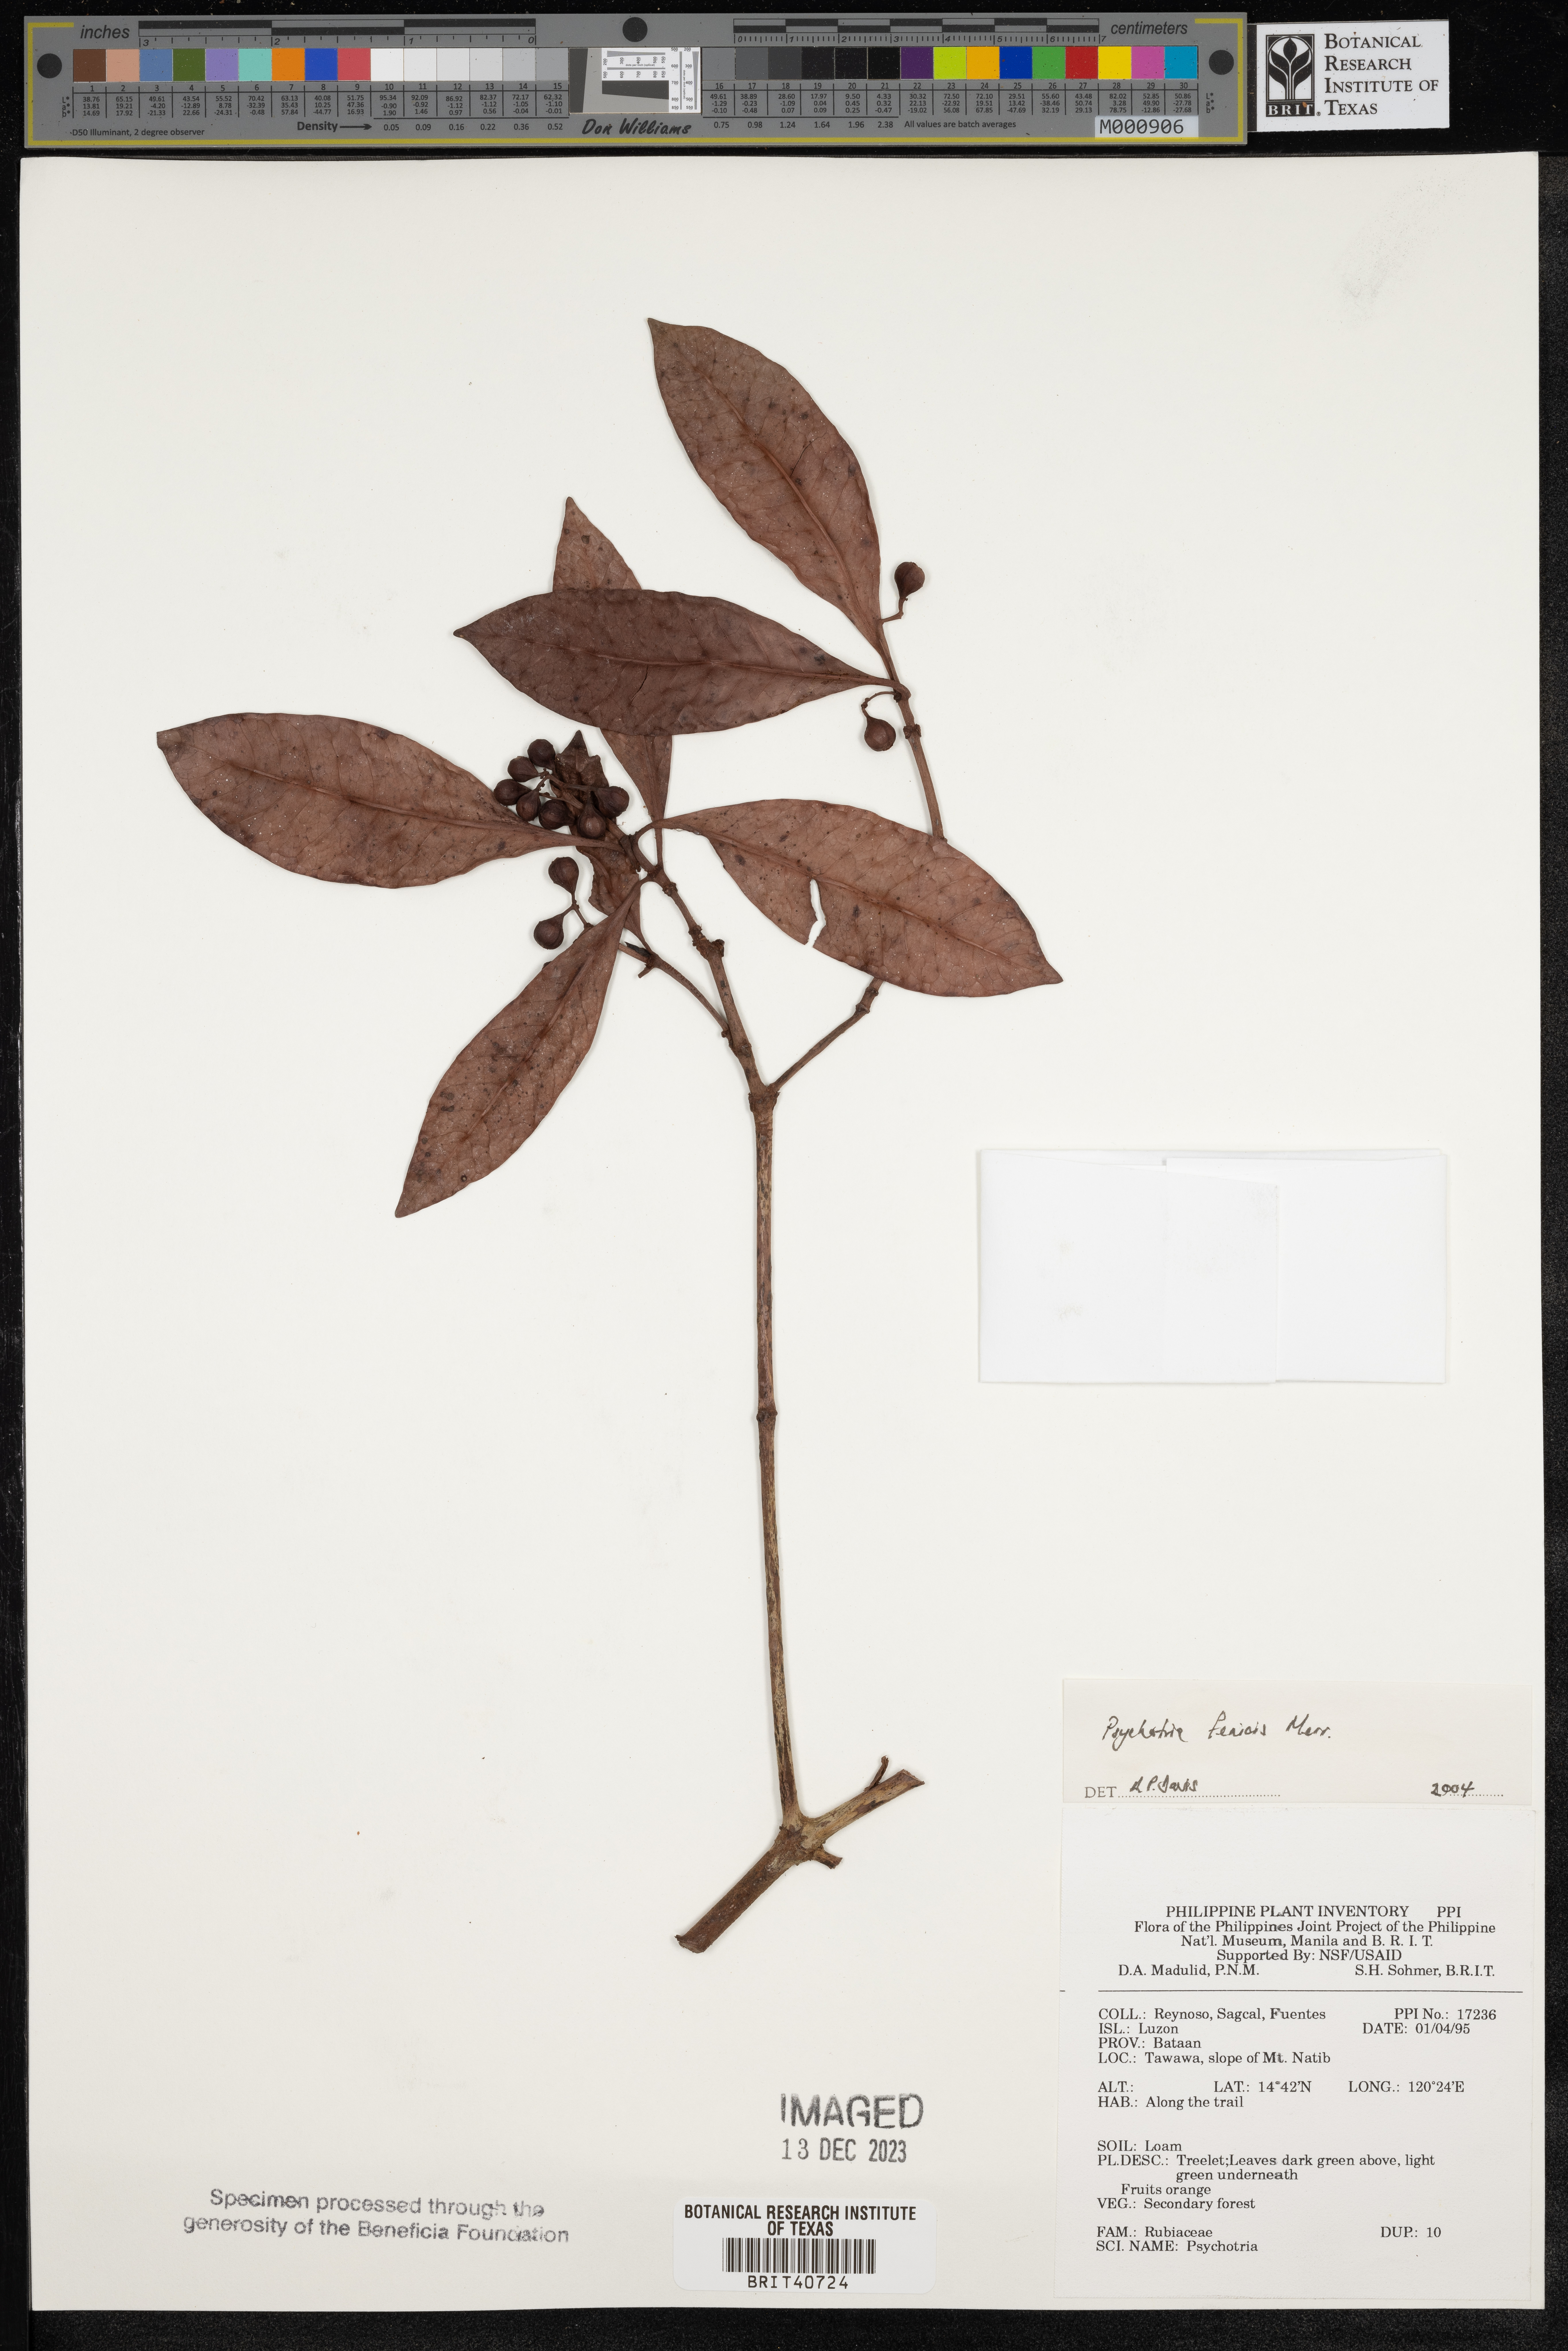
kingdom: Plantae
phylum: Tracheophyta
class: Magnoliopsida
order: Gentianales
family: Rubiaceae
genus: Psychotria
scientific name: Psychotria fenicis
